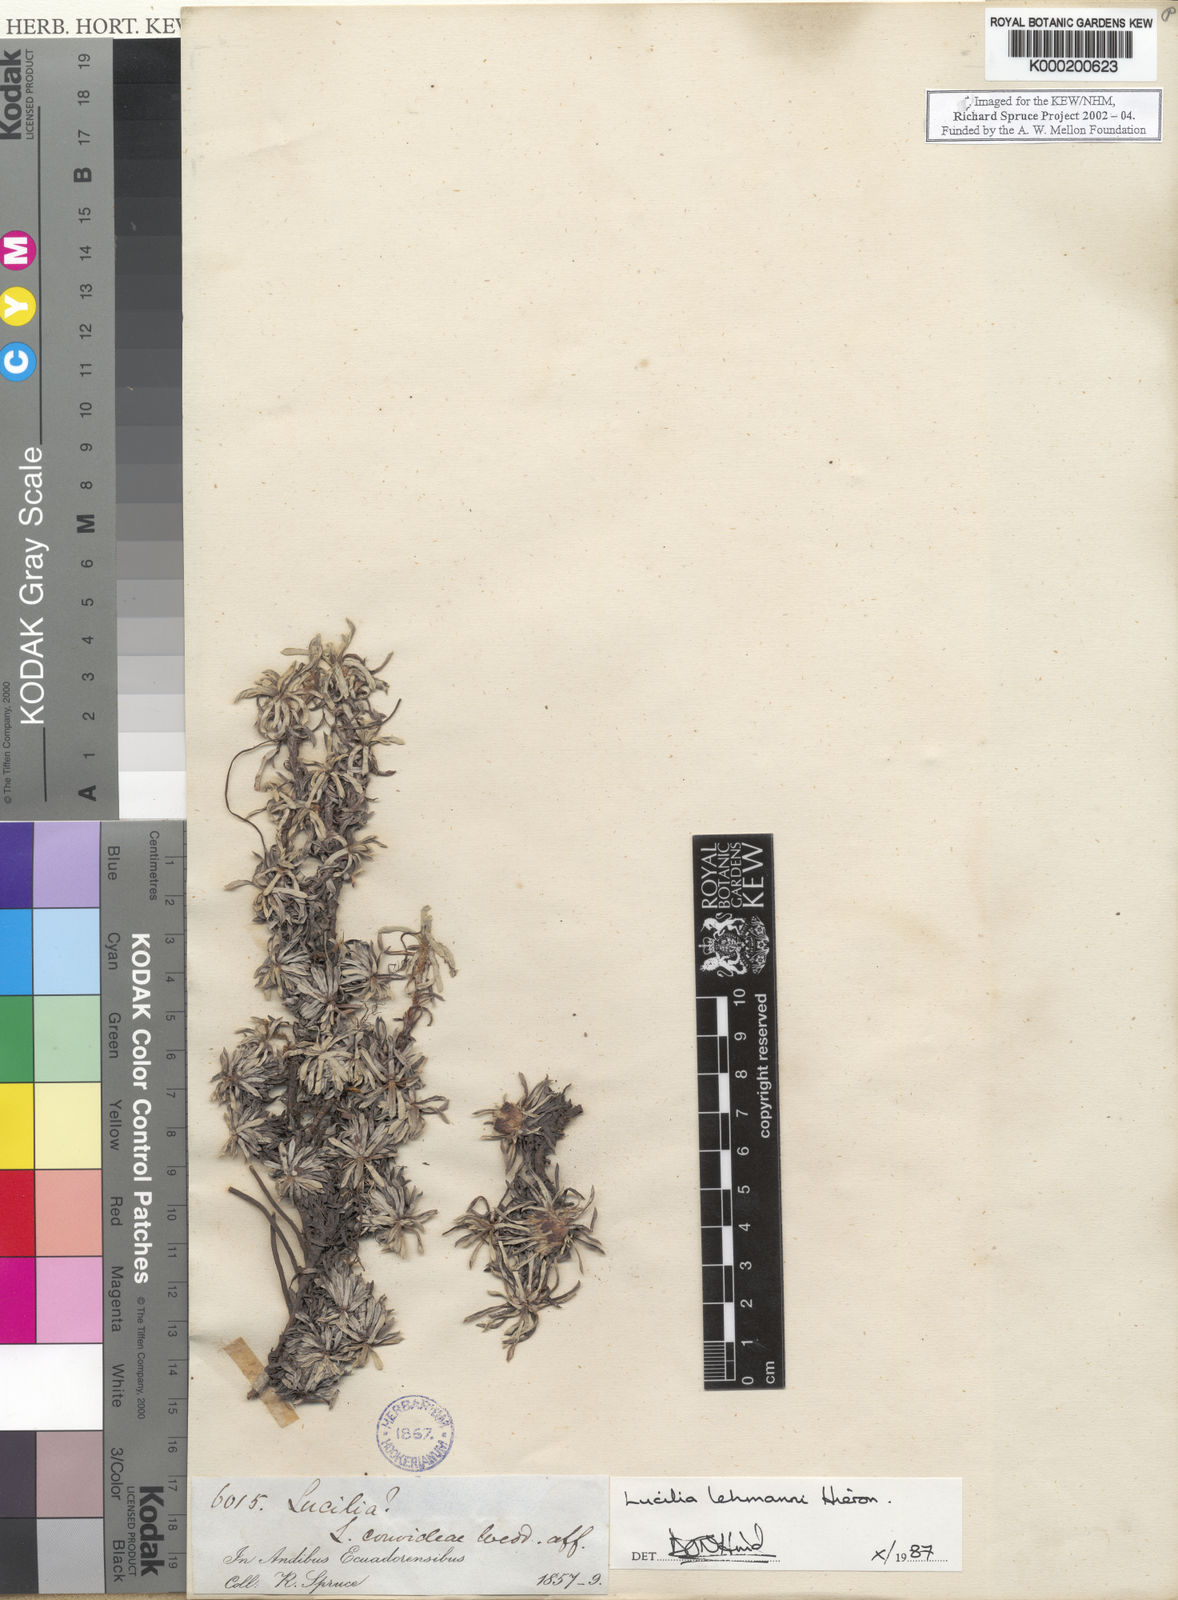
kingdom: Plantae
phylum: Tracheophyta
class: Magnoliopsida
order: Asterales
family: Asteraceae
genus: Mniodes
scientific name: Mniodes kunthiana
